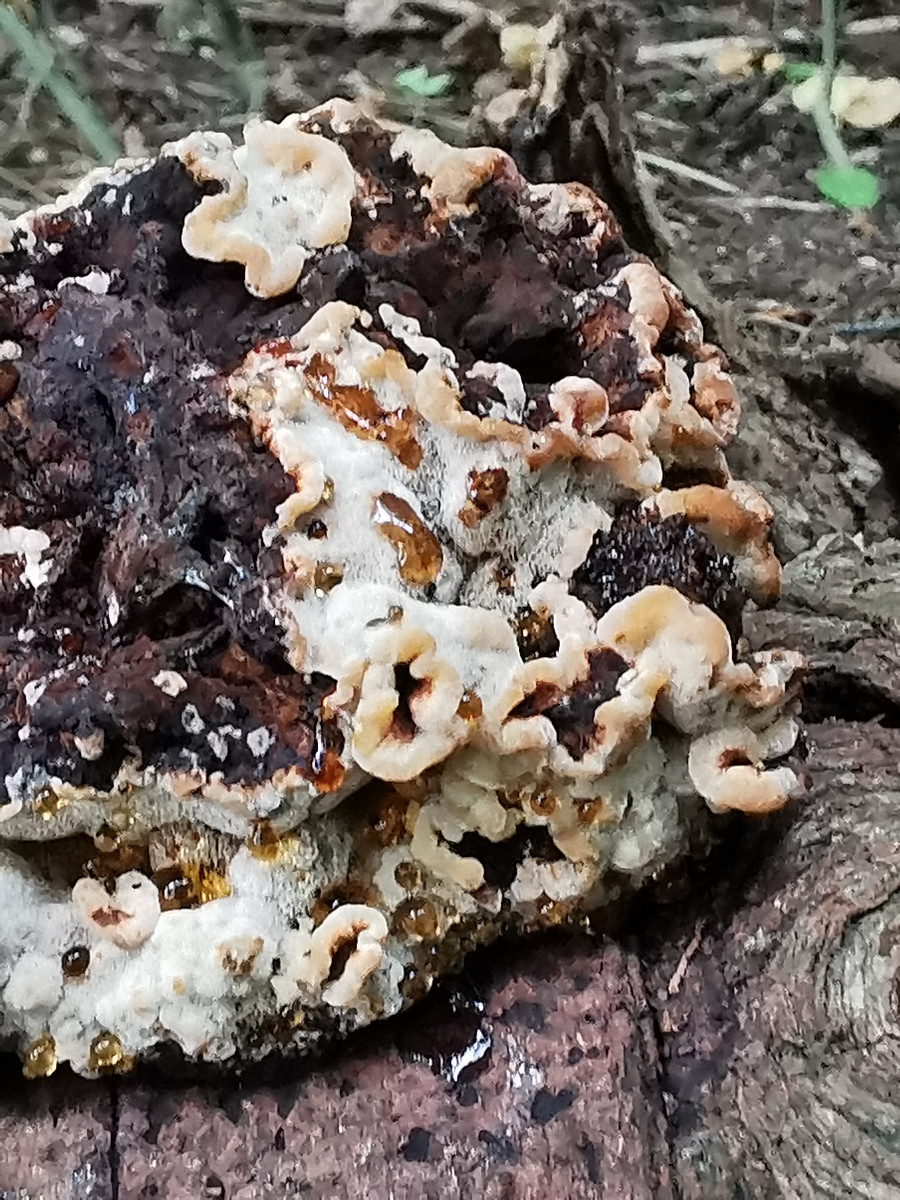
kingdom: Fungi
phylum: Basidiomycota
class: Agaricomycetes
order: Polyporales
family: Ischnodermataceae
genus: Ischnoderma
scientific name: Ischnoderma benzoinum
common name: gran-tjæreporesvamp
